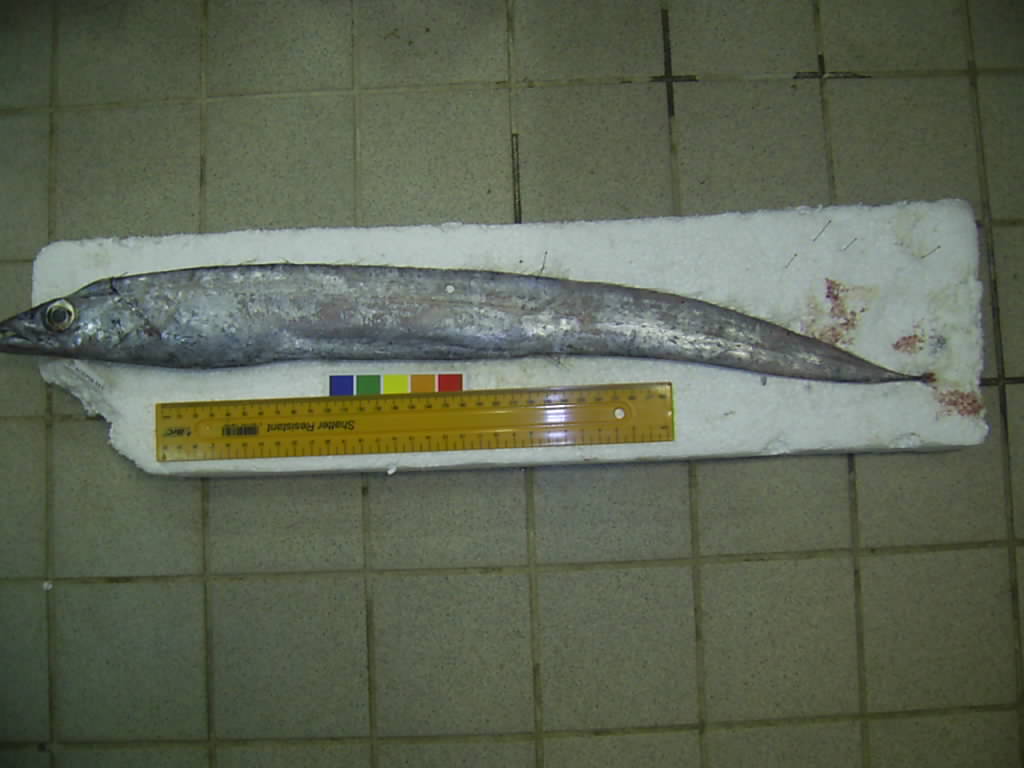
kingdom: Animalia
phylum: Chordata
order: Perciformes
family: Trichiuridae
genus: Benthodesmus
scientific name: Benthodesmus tenuis
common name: Slender frostfish
